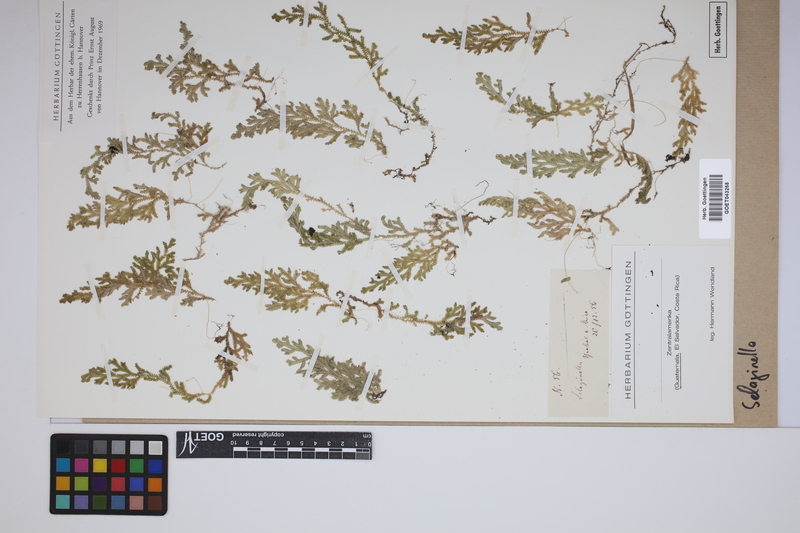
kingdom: Plantae
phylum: Tracheophyta
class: Lycopodiopsida
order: Selaginellales
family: Selaginellaceae
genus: Selaginella
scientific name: Selaginella
